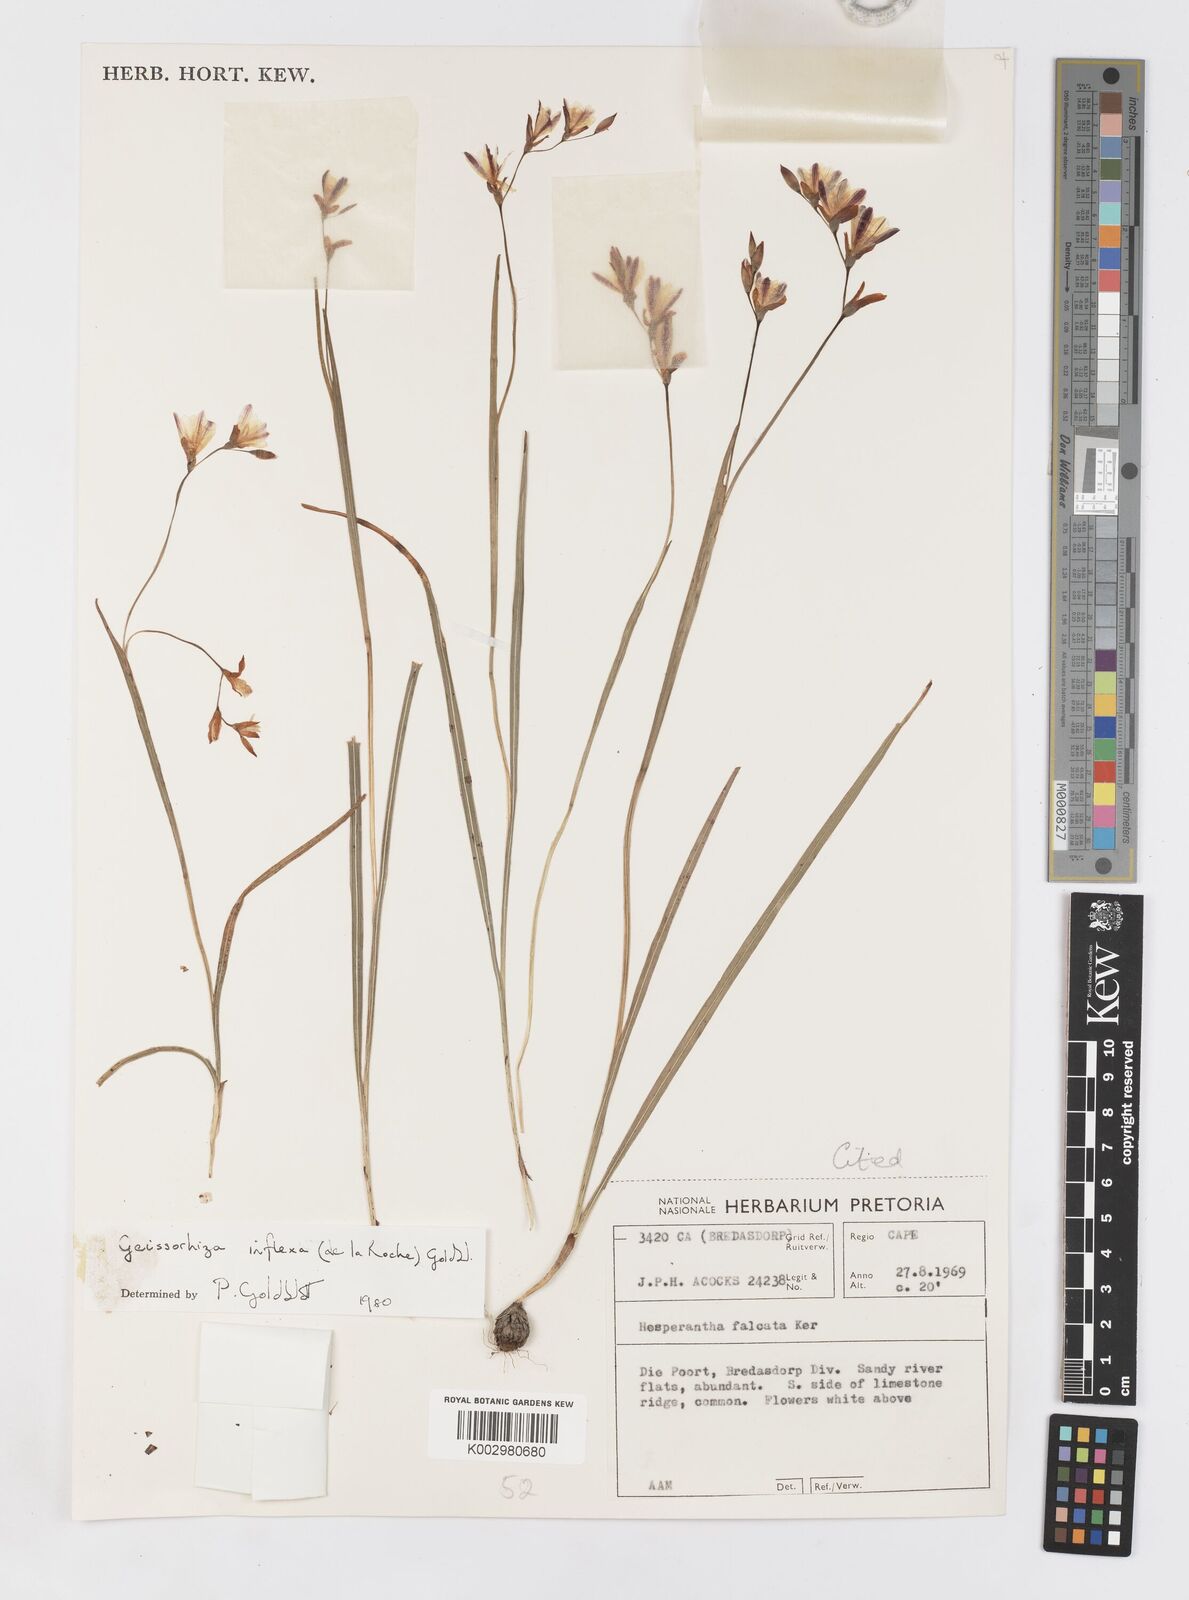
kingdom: Plantae
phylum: Tracheophyta
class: Liliopsida
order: Asparagales
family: Iridaceae
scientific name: Iridaceae
